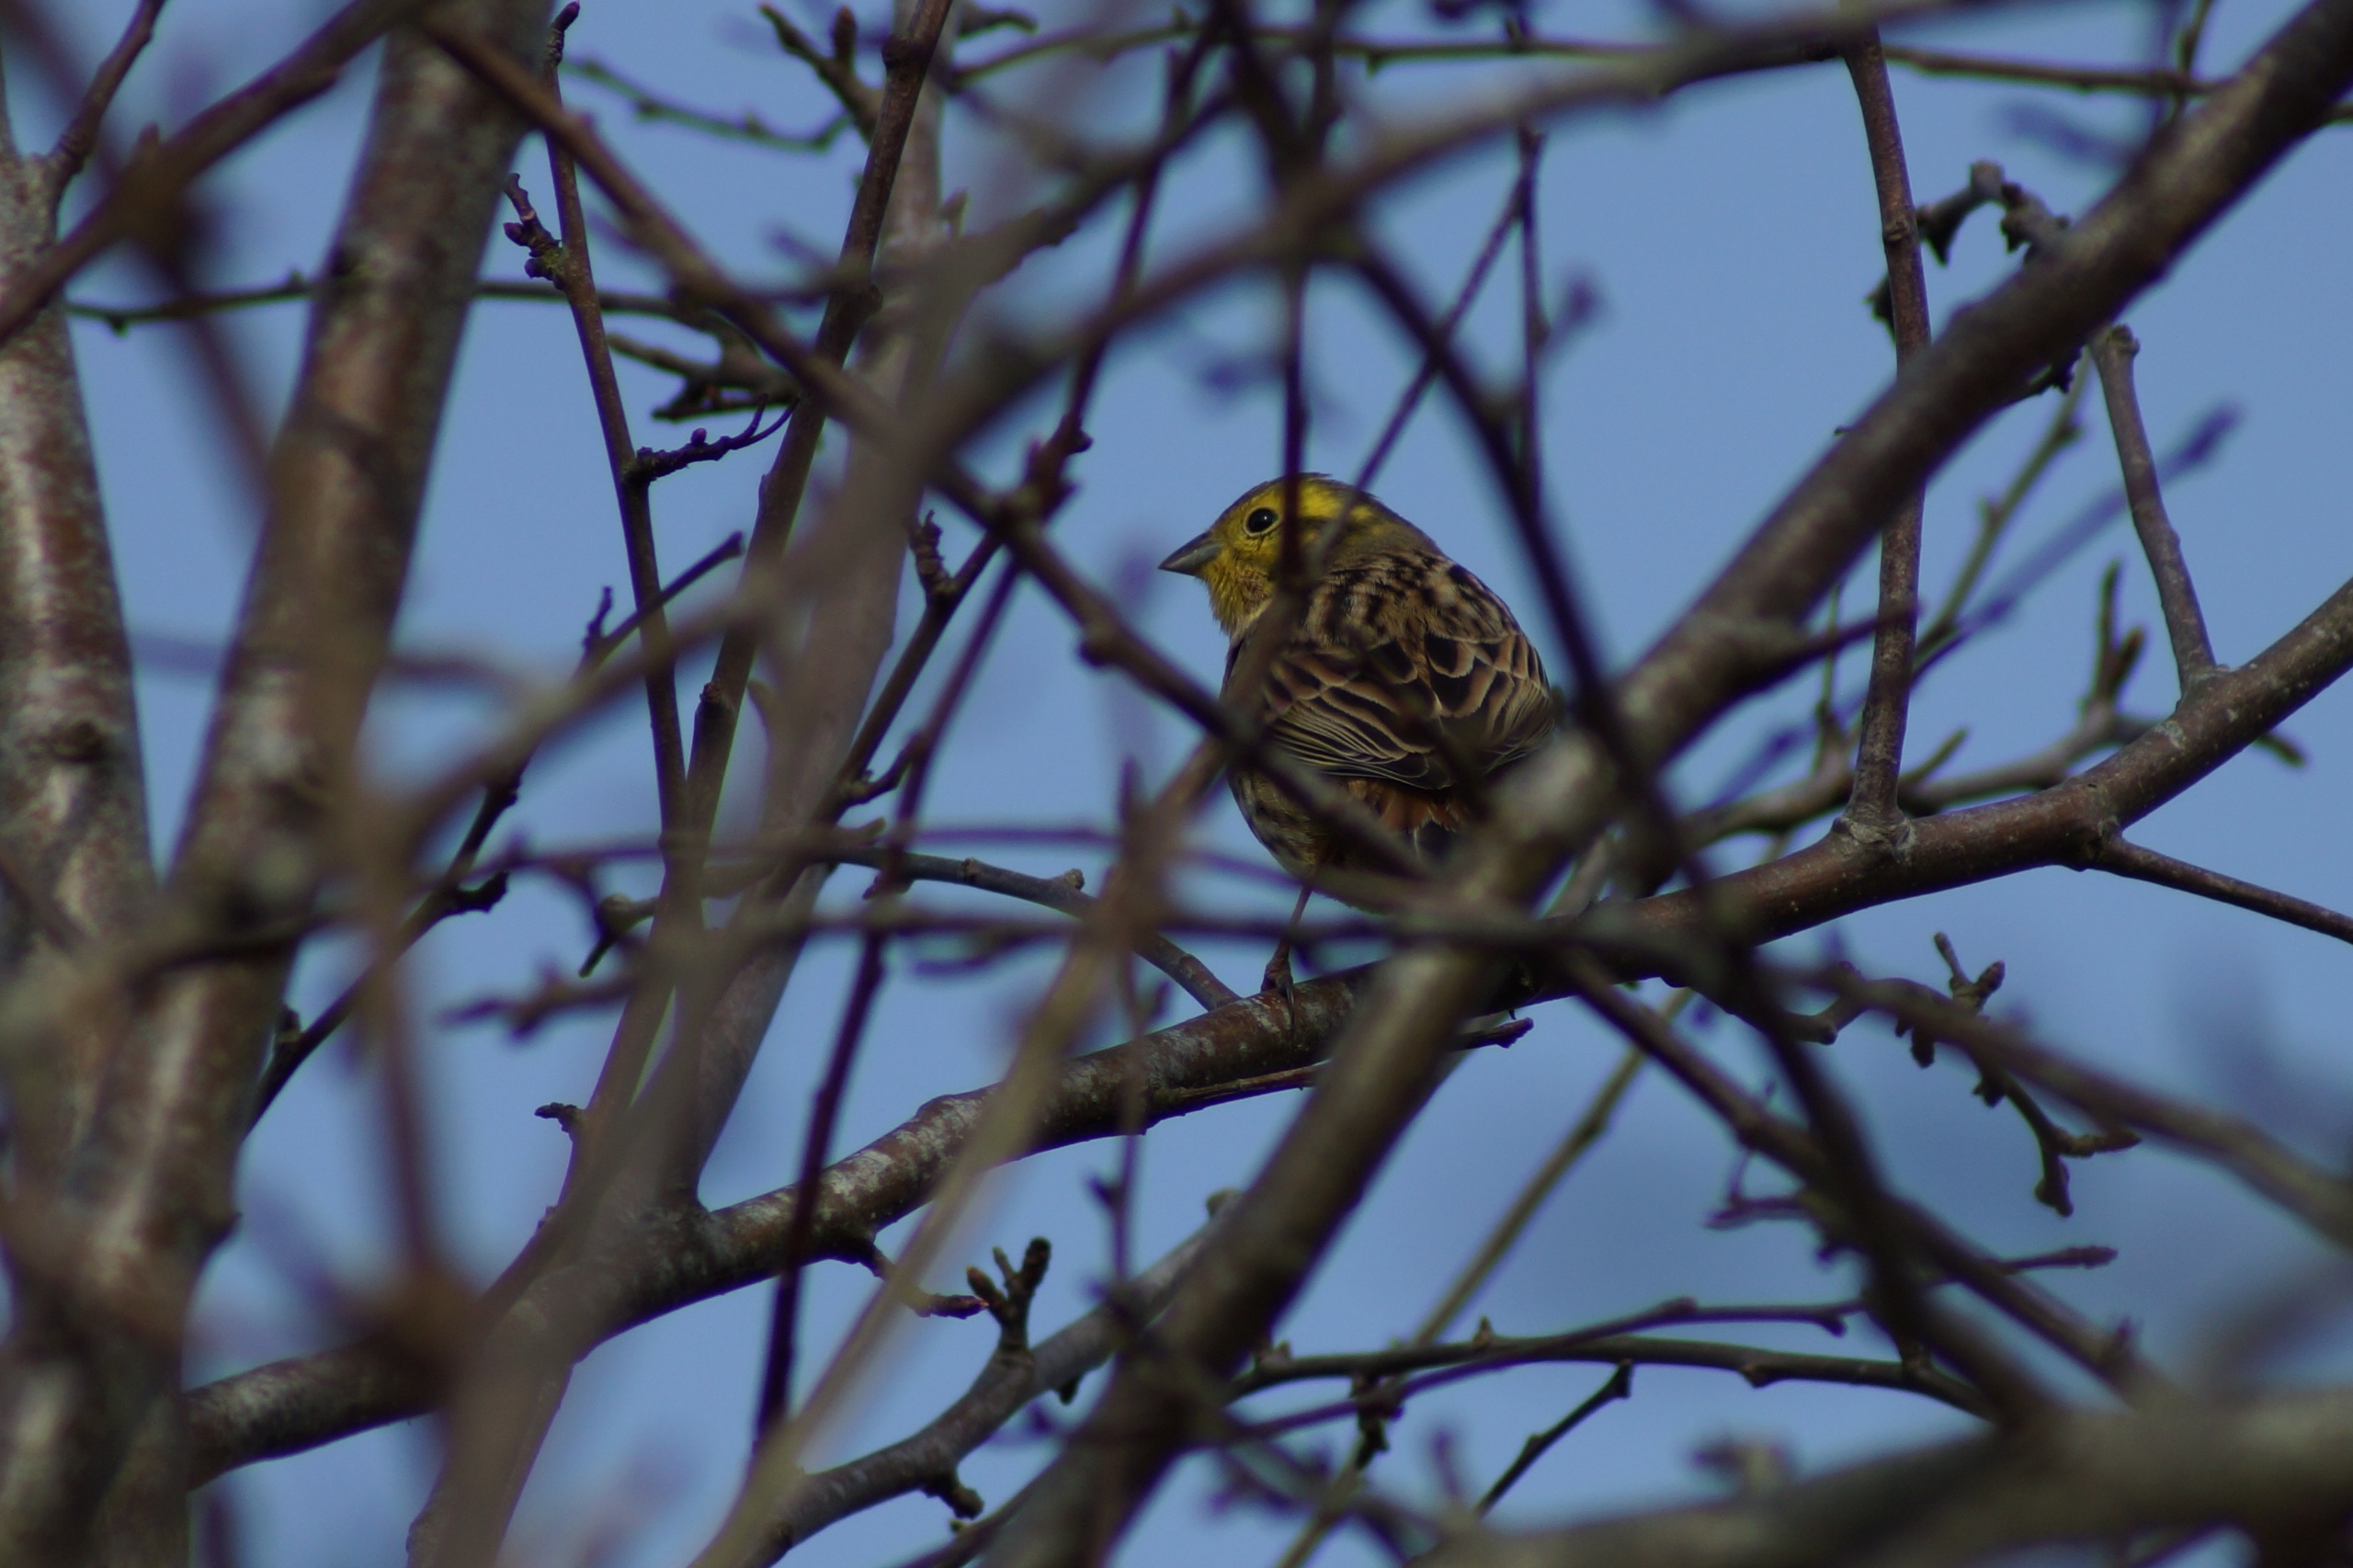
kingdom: Animalia
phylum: Chordata
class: Aves
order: Passeriformes
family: Emberizidae
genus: Emberiza
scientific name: Emberiza citrinella
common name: Gulspurv
